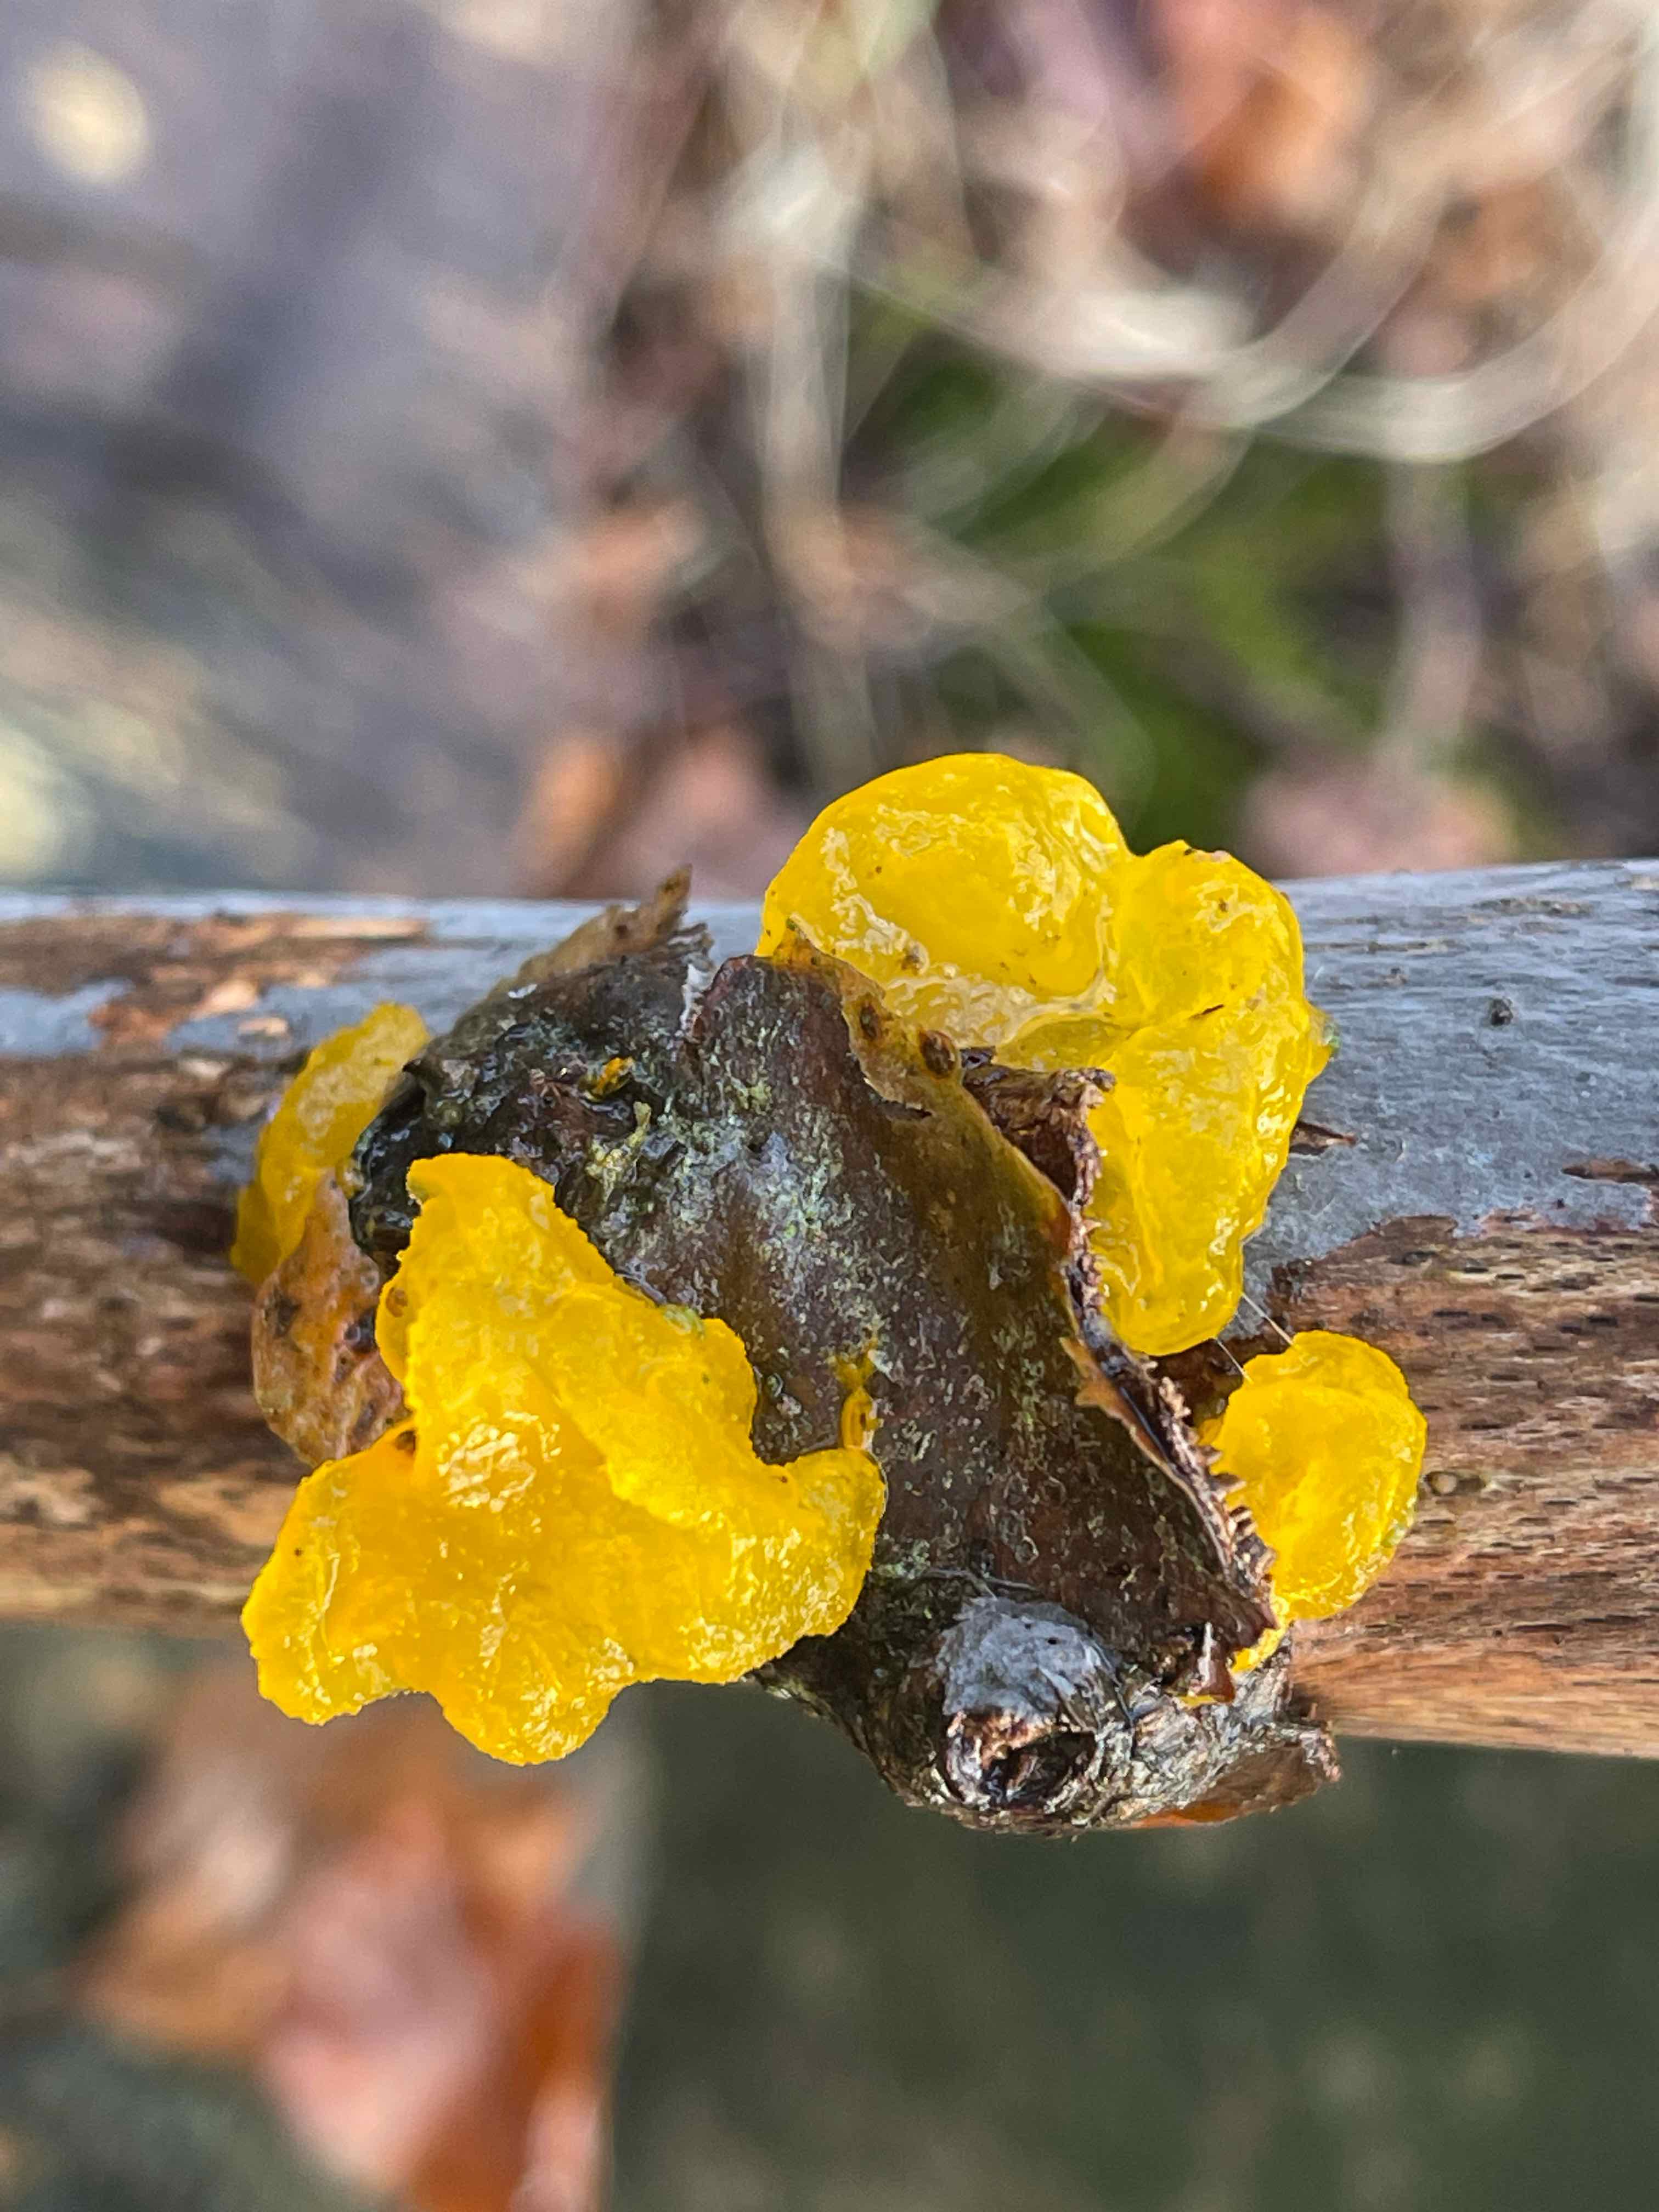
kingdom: Fungi
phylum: Basidiomycota
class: Tremellomycetes
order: Tremellales
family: Tremellaceae
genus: Tremella
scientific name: Tremella mesenterica
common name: gul bævresvamp
